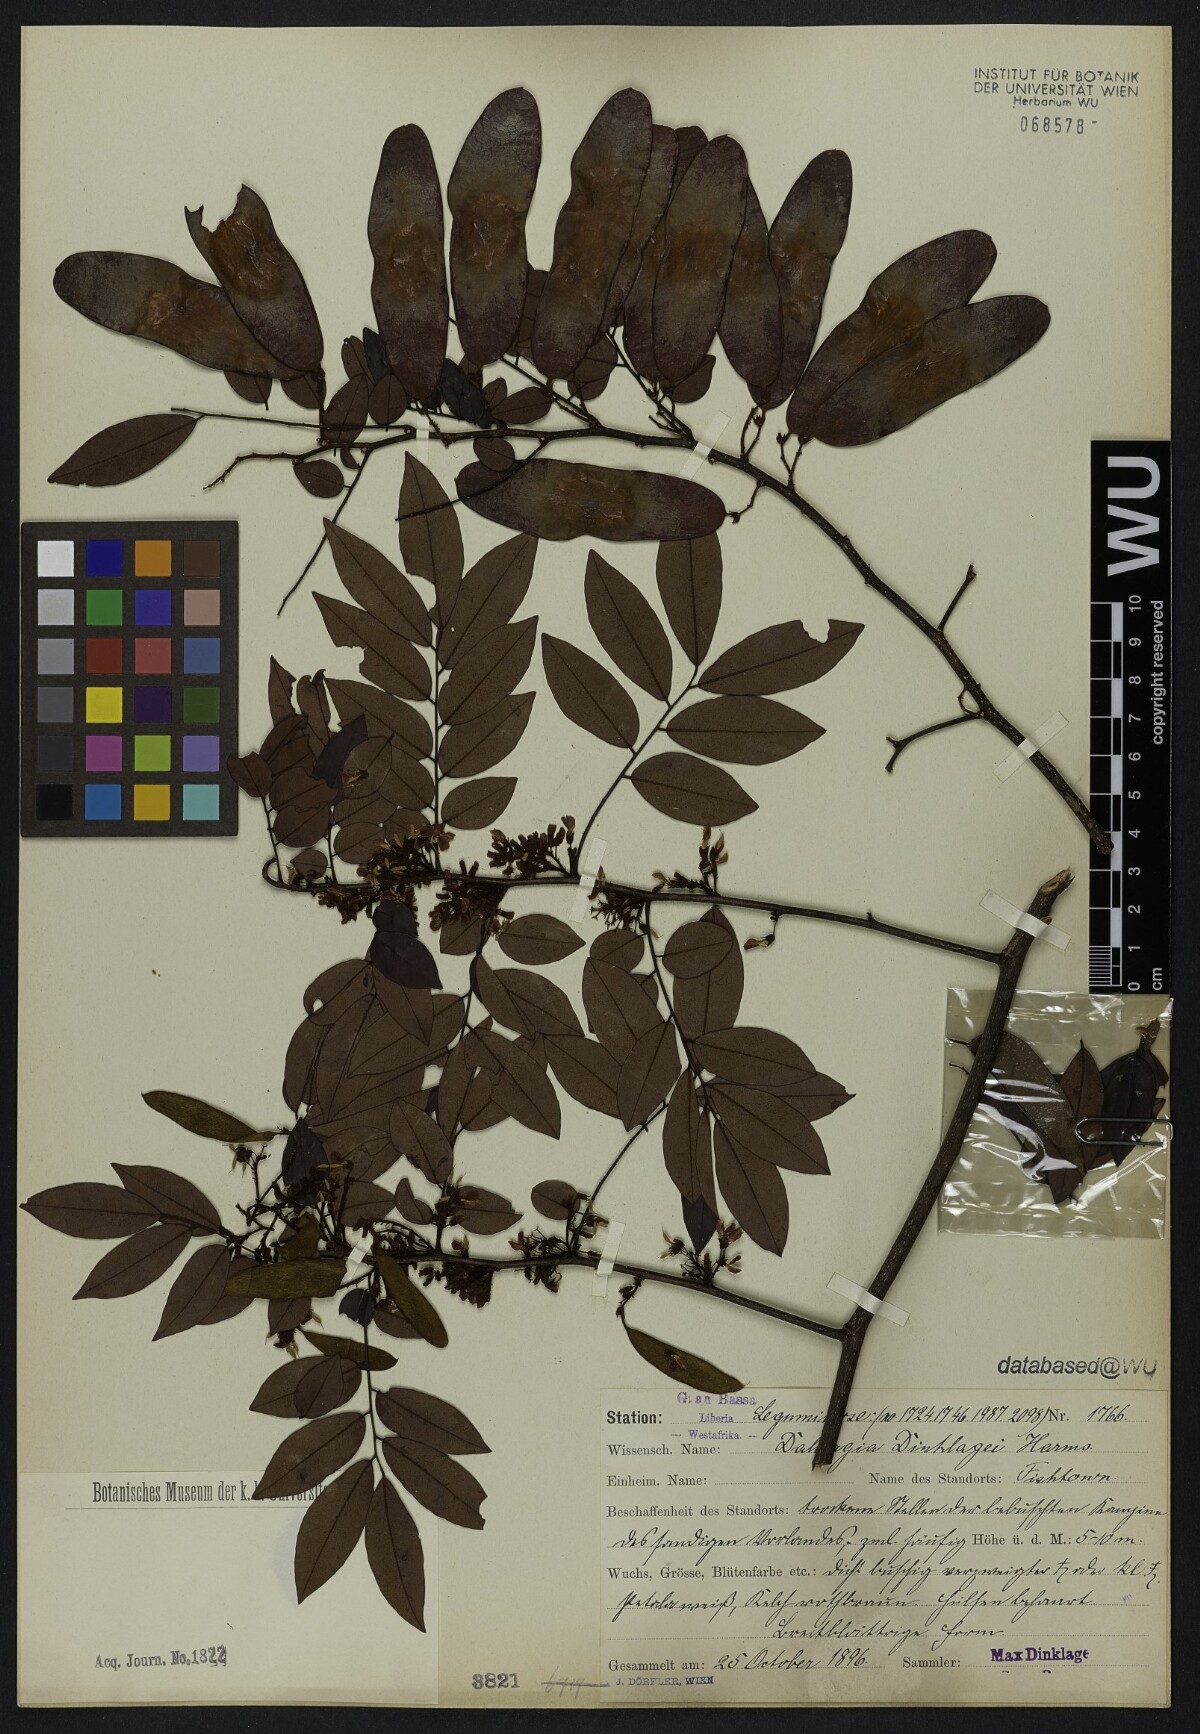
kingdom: Plantae
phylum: Tracheophyta
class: Magnoliopsida
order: Fabales
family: Fabaceae
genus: Dalbergia
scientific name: Dalbergia oblongifolia
